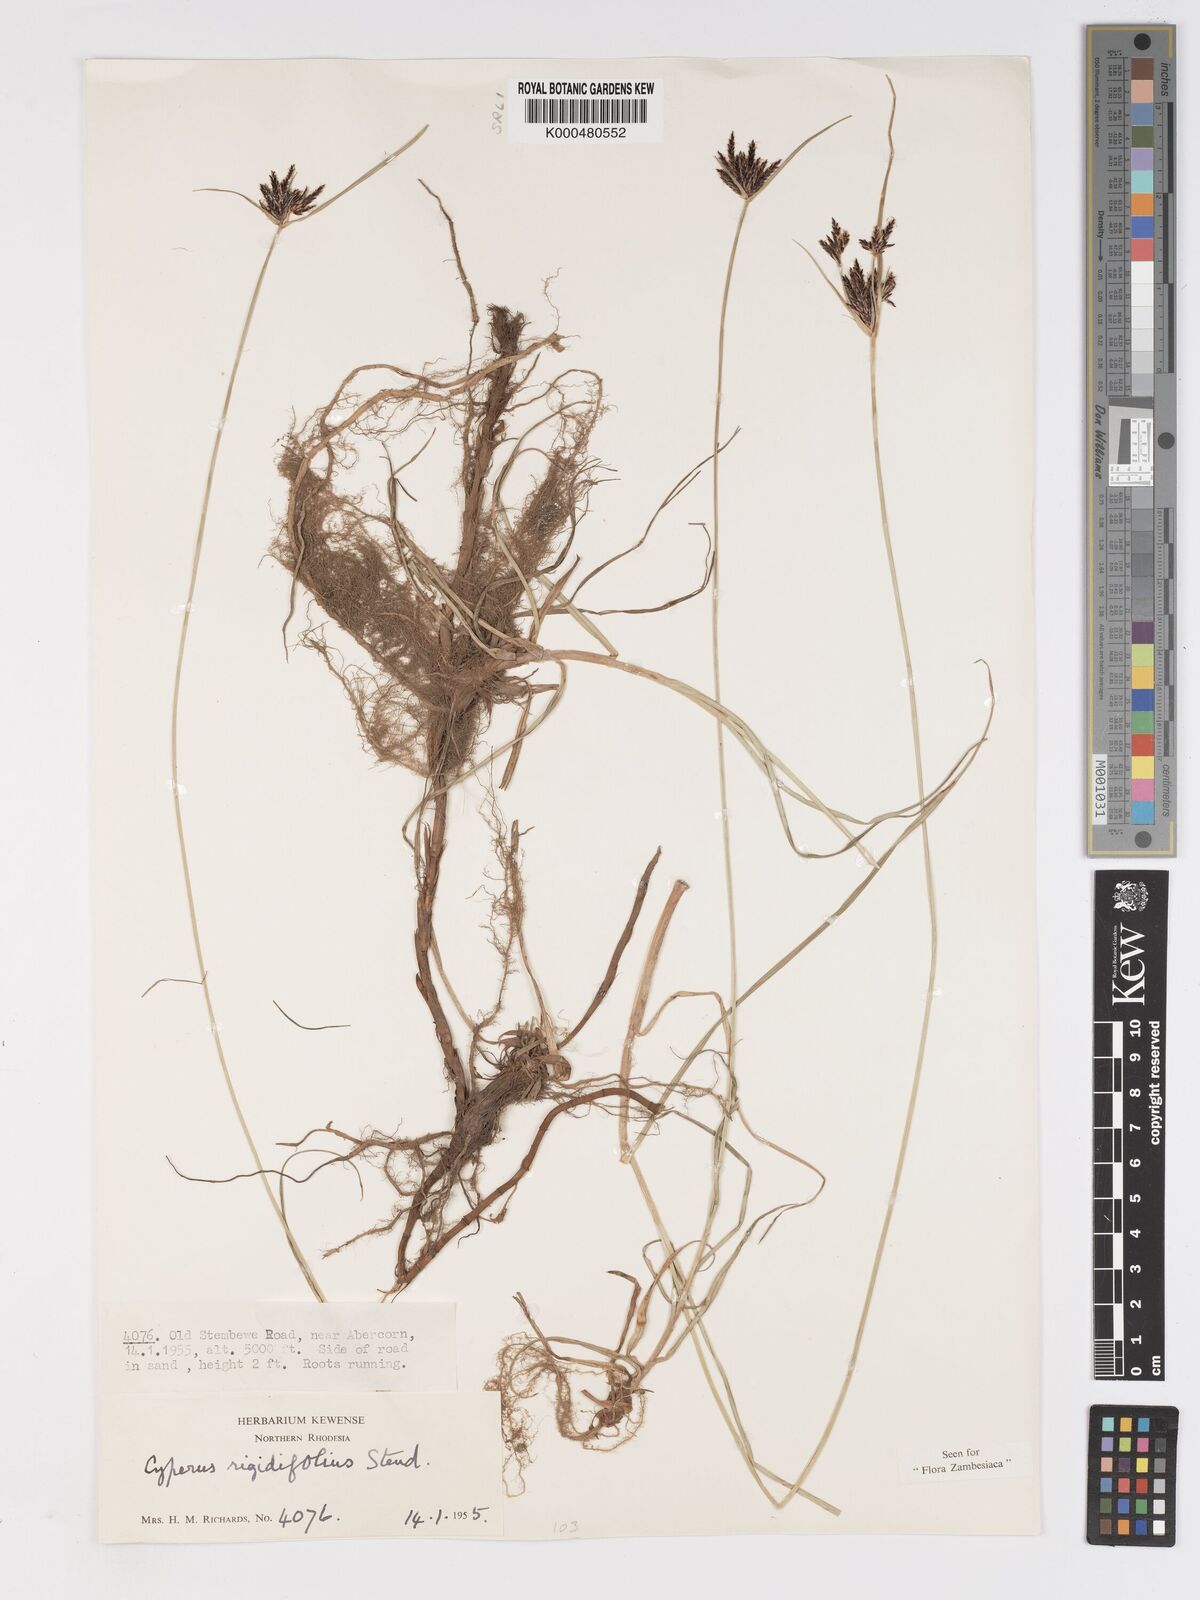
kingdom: Plantae
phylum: Tracheophyta
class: Liliopsida
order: Poales
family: Cyperaceae
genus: Cyperus
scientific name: Cyperus rigidifolius
